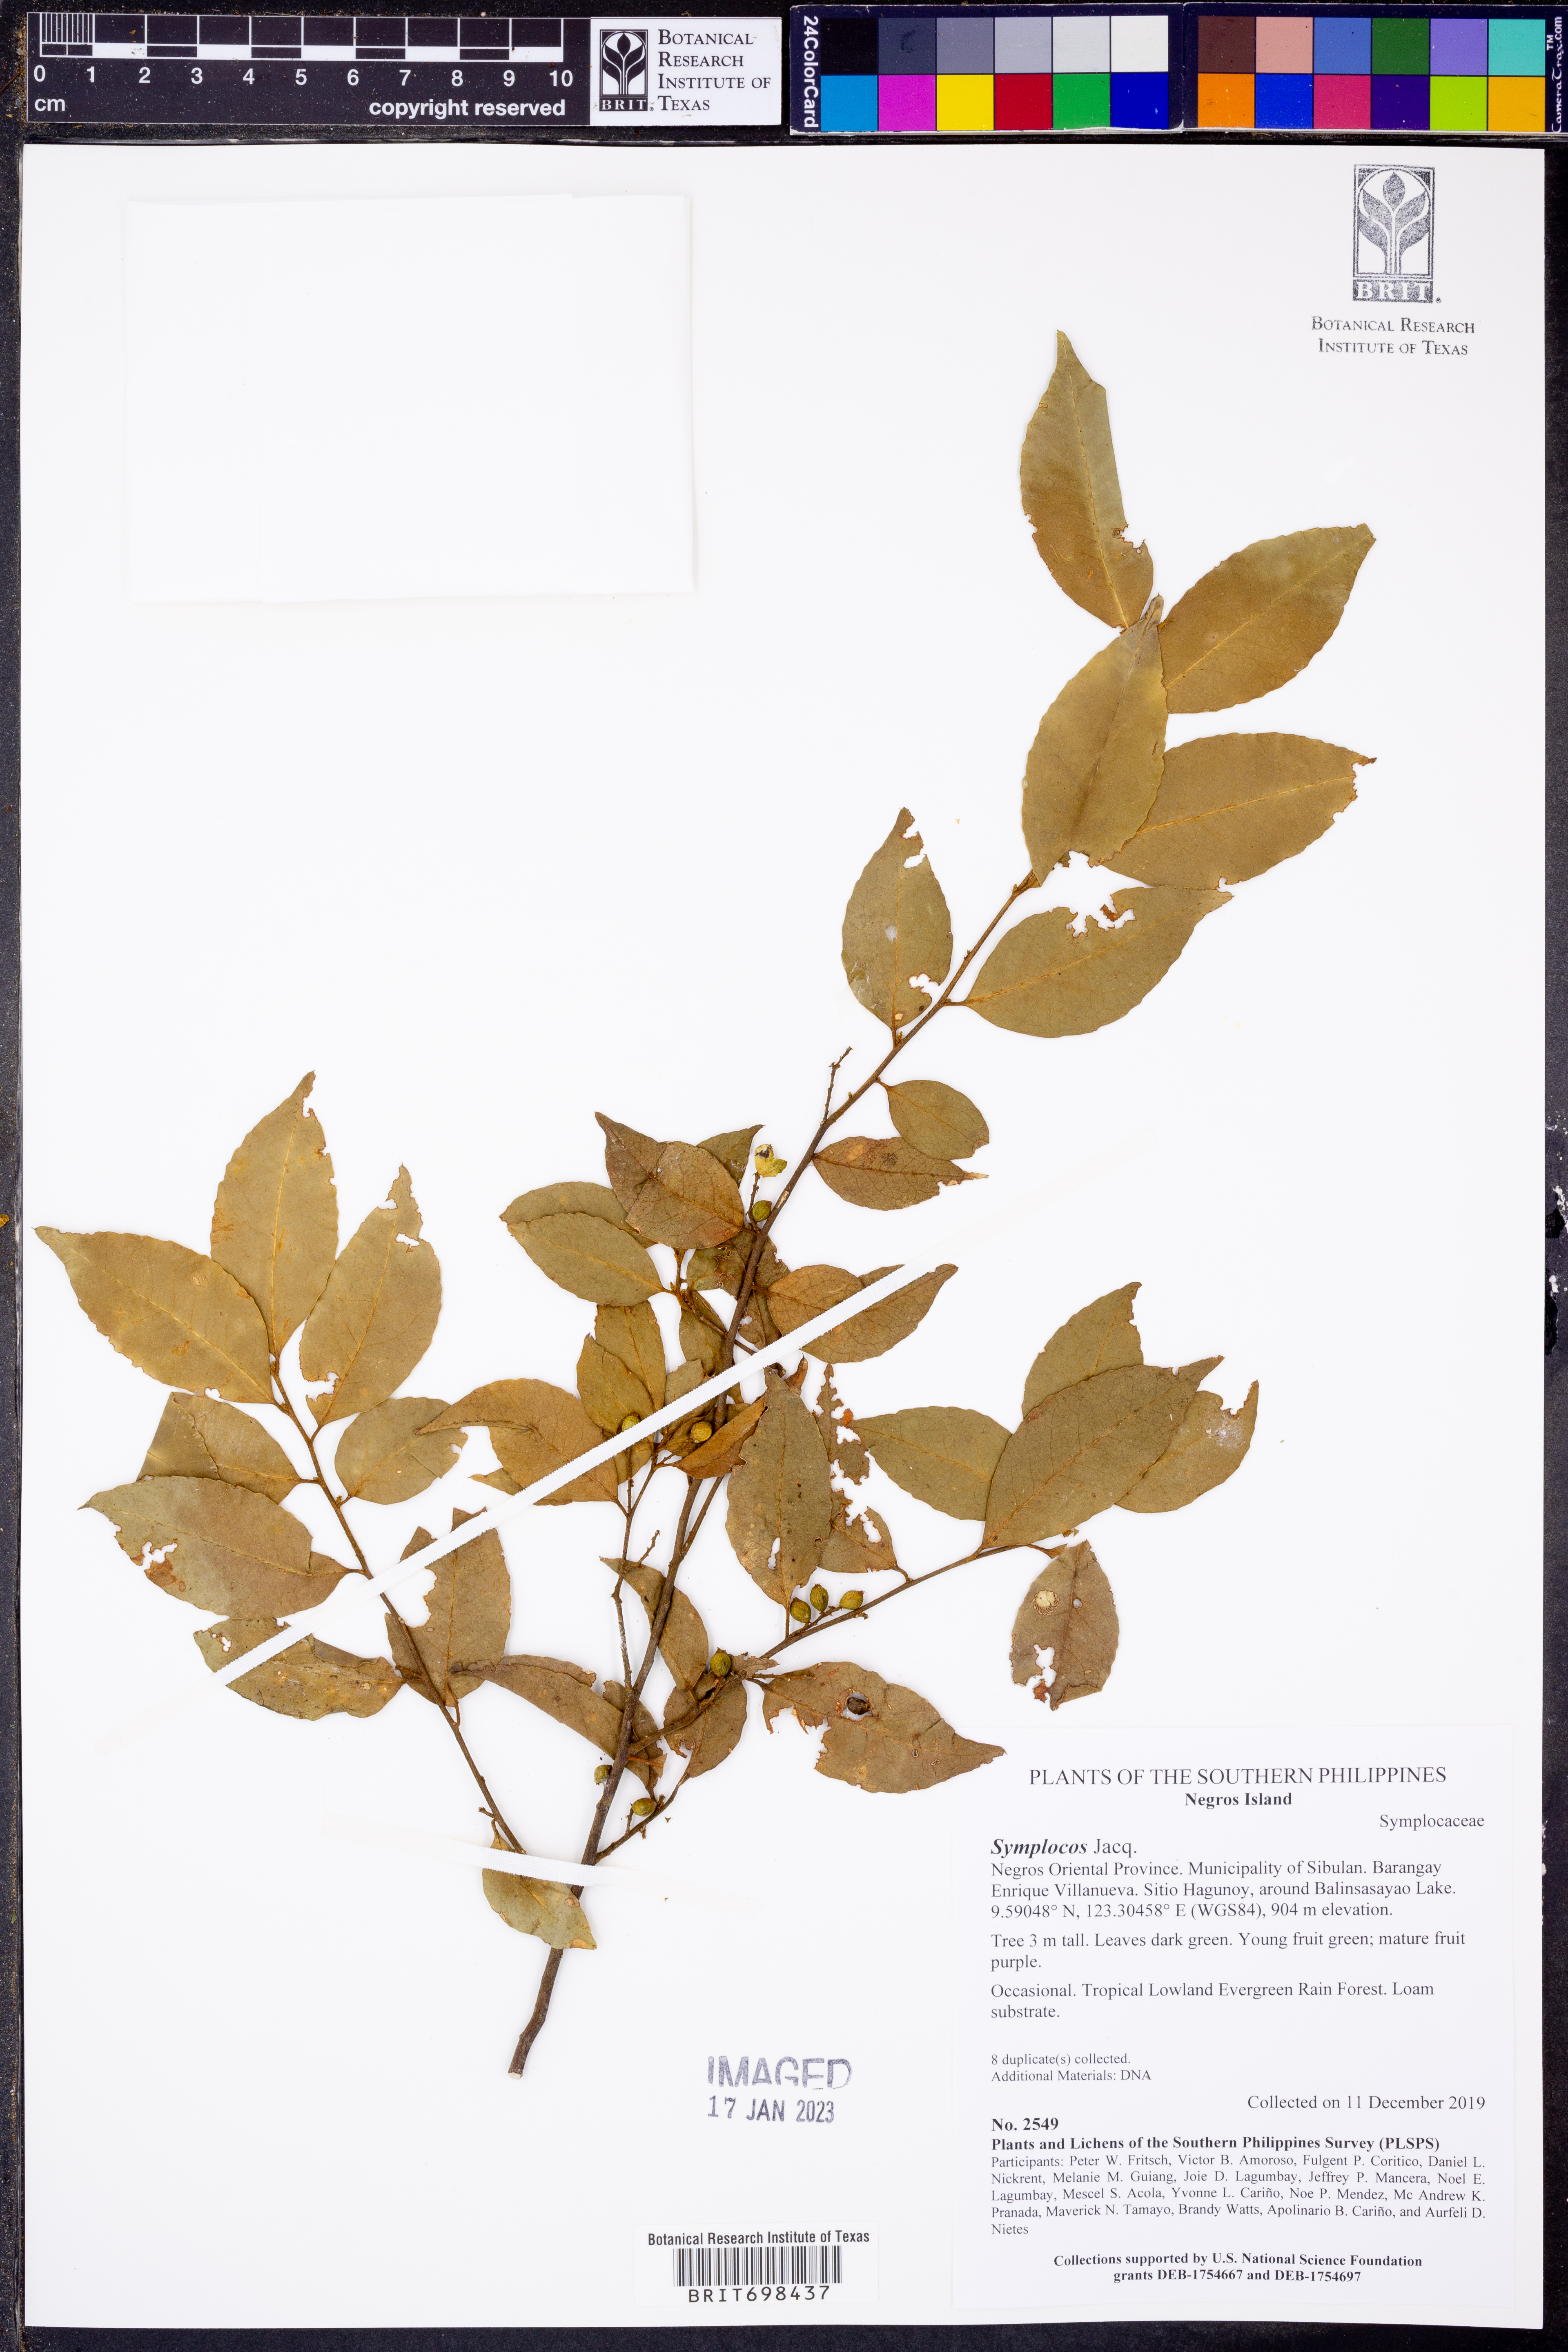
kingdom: Plantae
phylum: Tracheophyta
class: Magnoliopsida
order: Ericales
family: Symplocaceae
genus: Symplocos
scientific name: Symplocos
